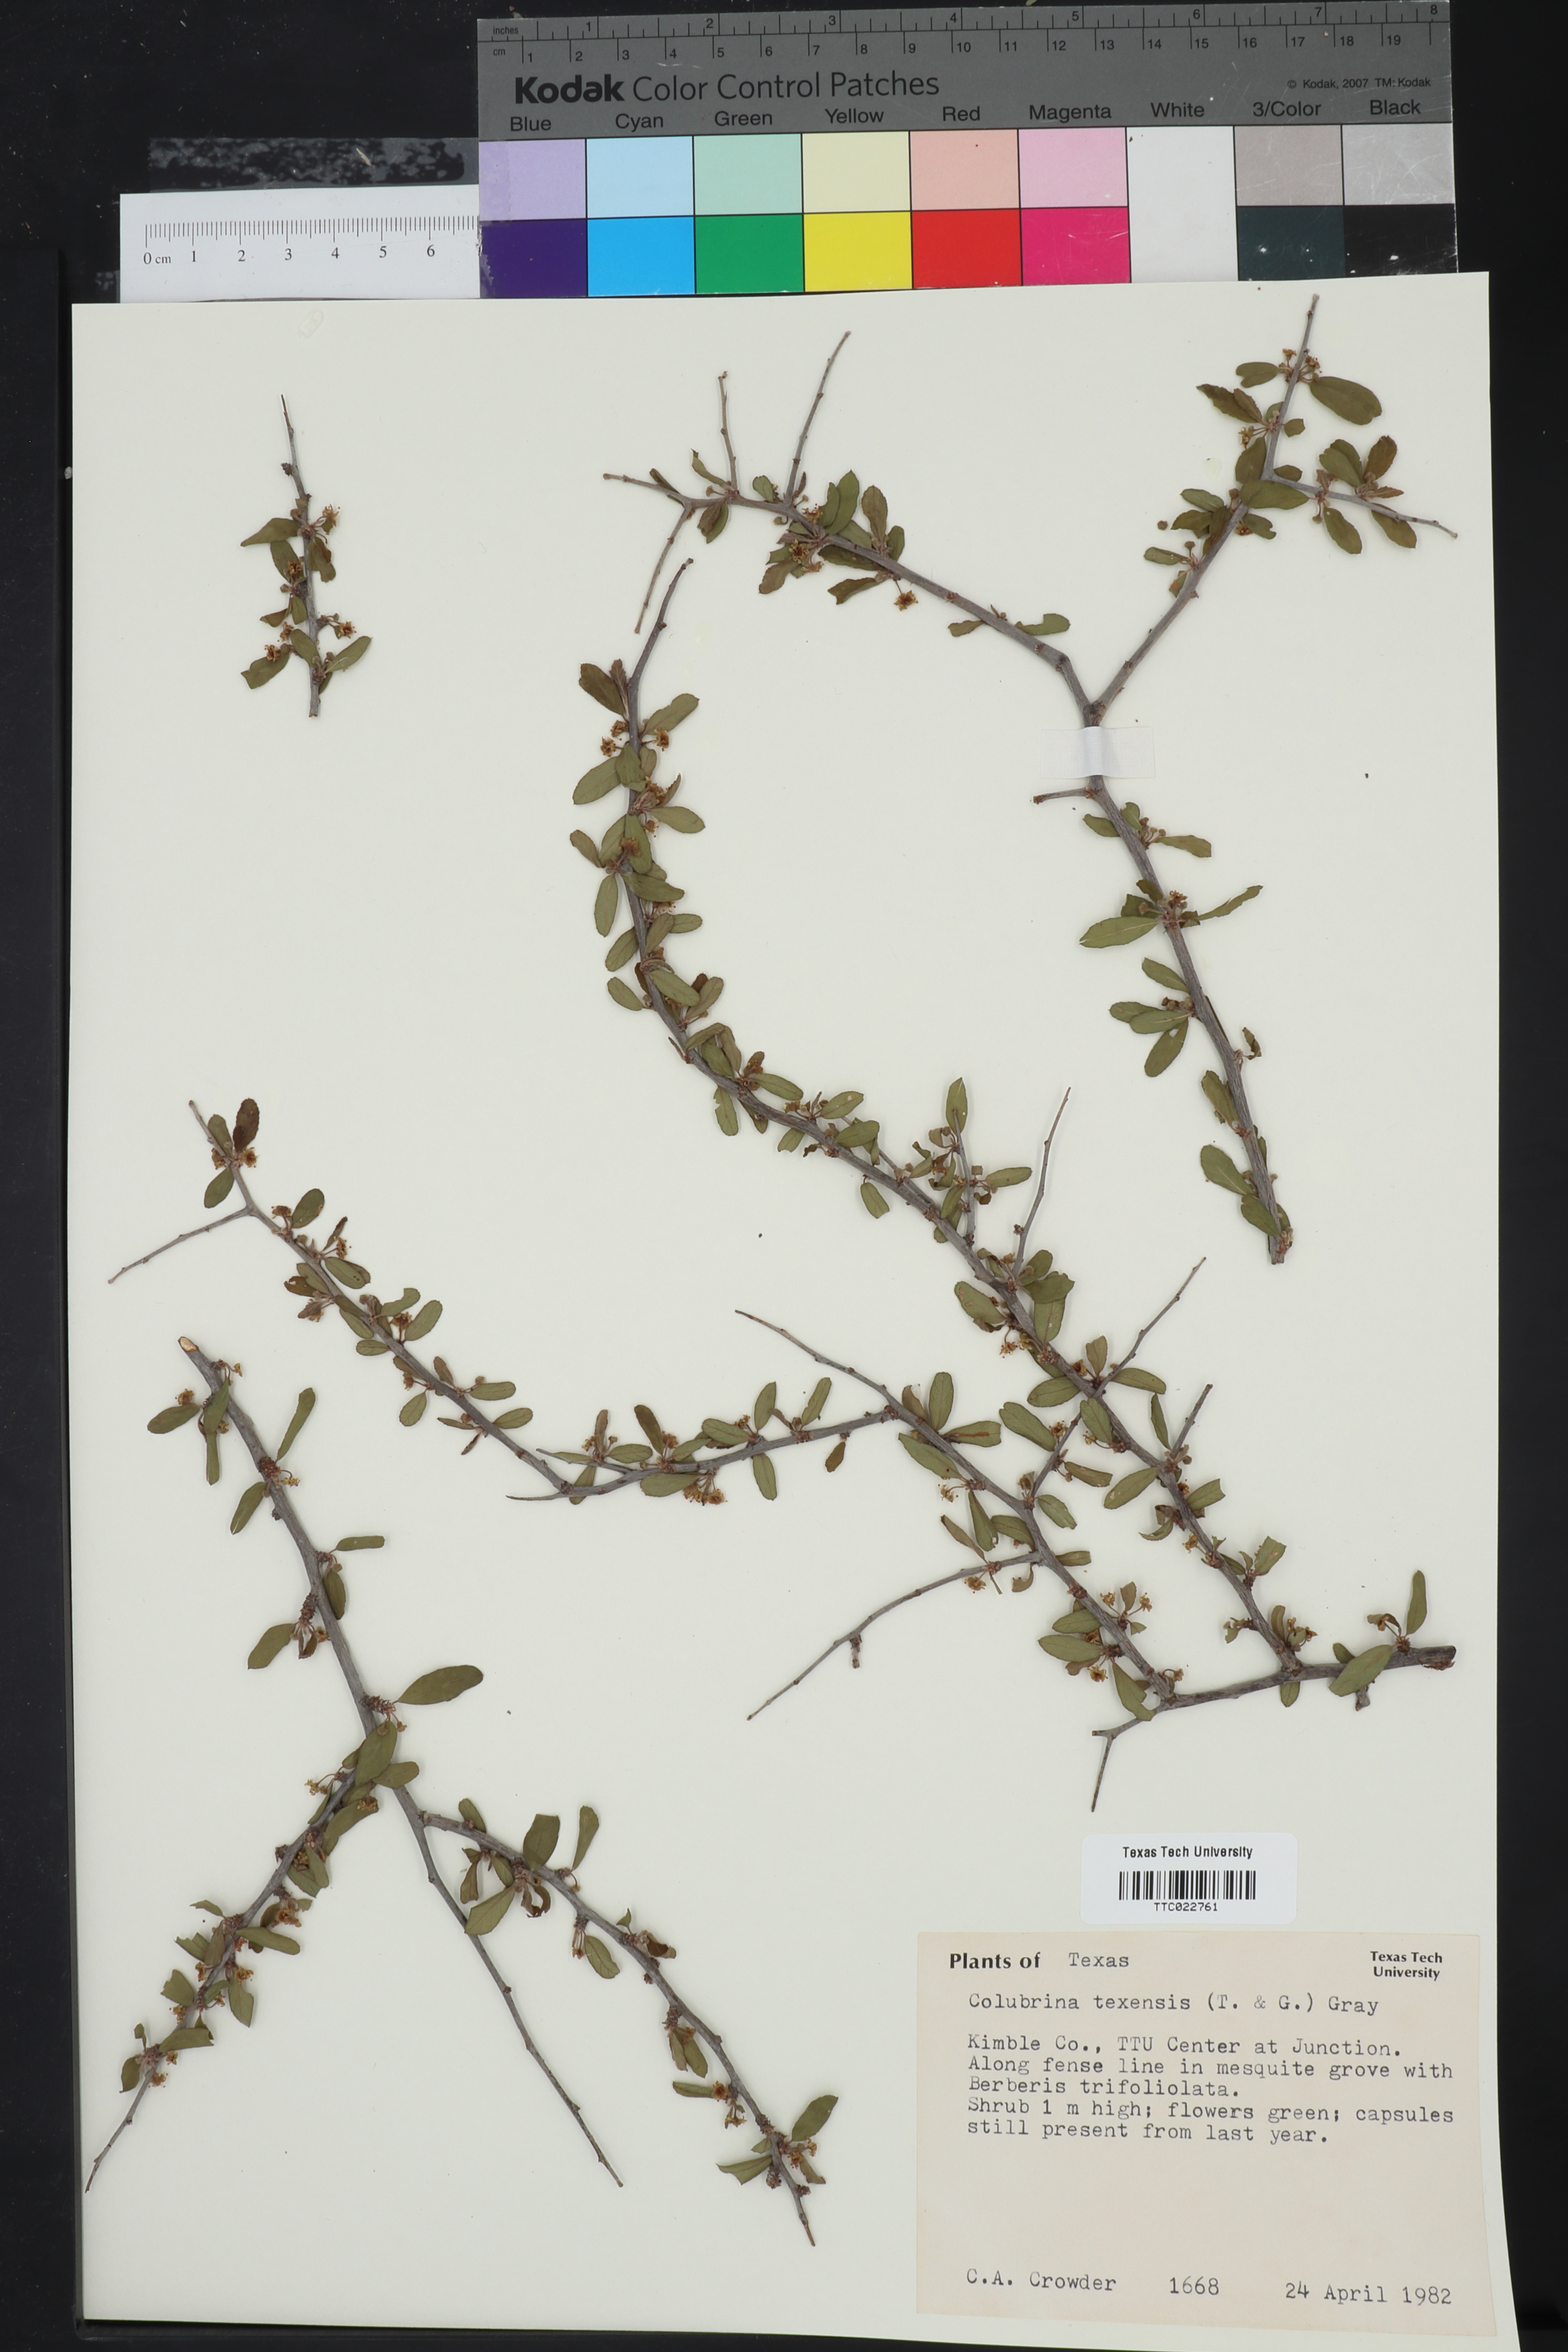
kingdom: Plantae
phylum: Tracheophyta
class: Magnoliopsida
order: Rosales
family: Rhamnaceae
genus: Colubrina
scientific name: Colubrina texensis
